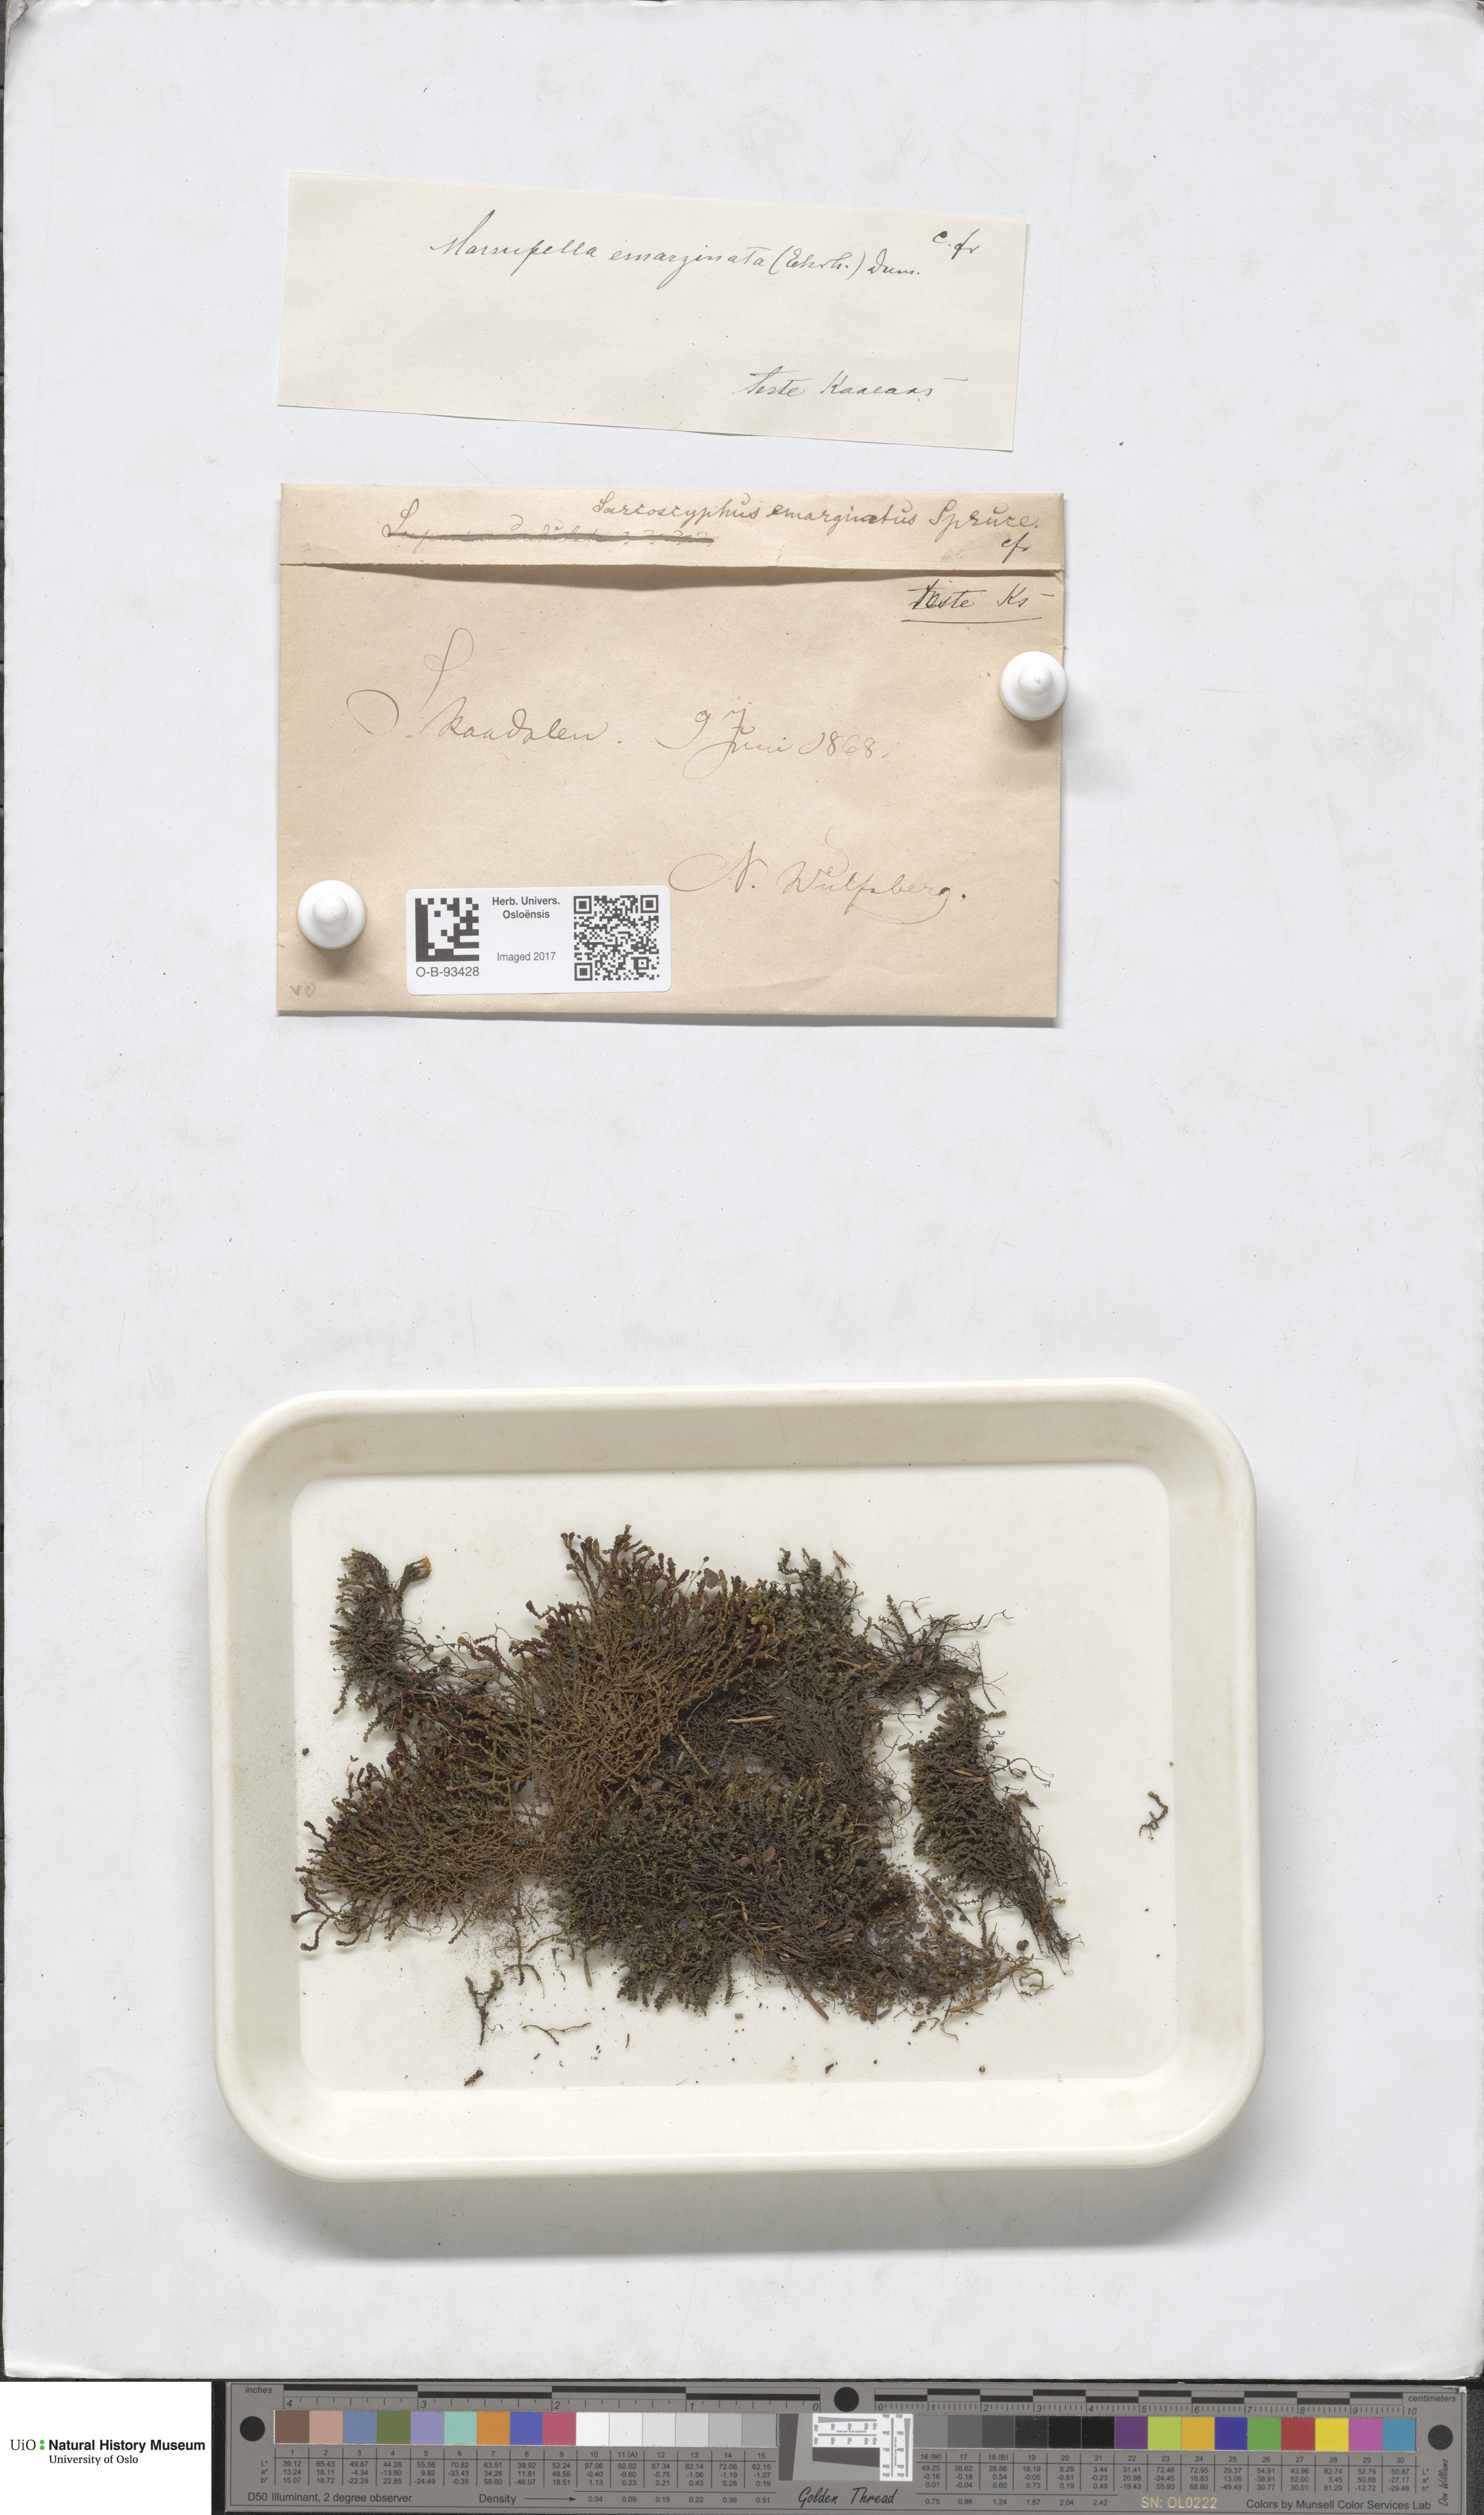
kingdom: Plantae
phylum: Marchantiophyta
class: Jungermanniopsida
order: Jungermanniales
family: Gymnomitriaceae
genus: Gymnomitrion
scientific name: Gymnomitrion brevissimum
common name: Snow rustwort
